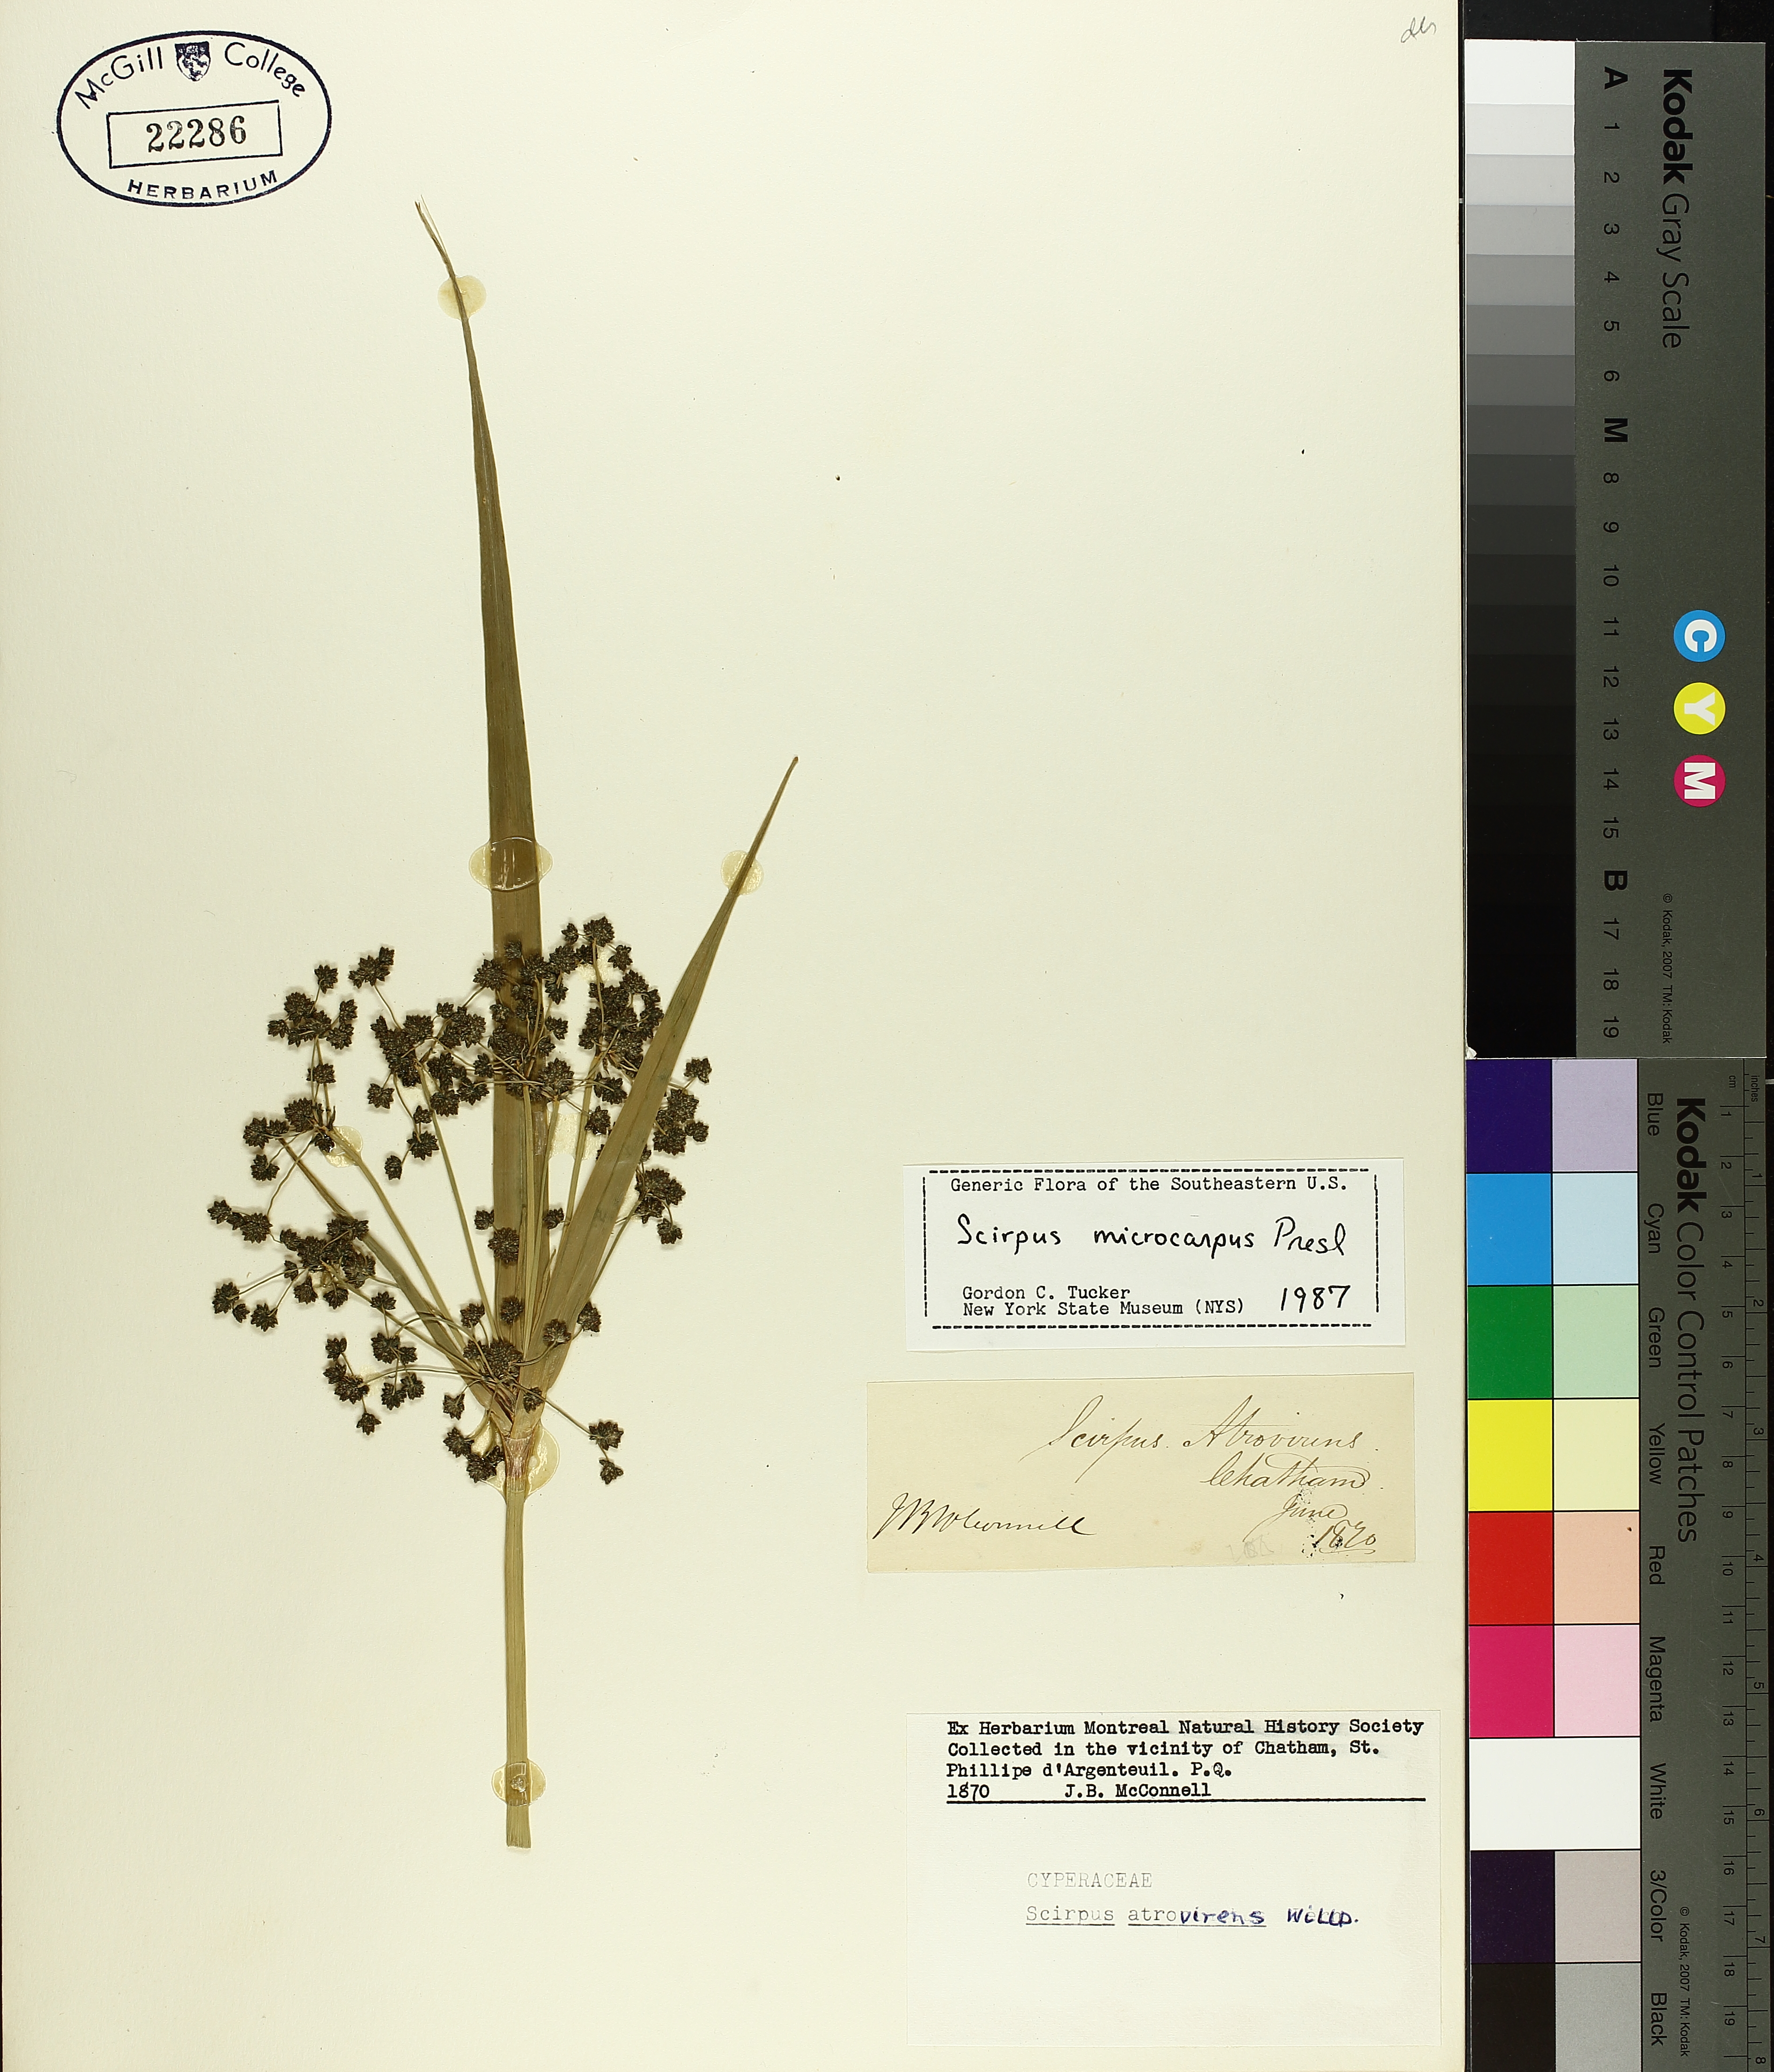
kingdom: Plantae
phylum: Tracheophyta
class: Liliopsida
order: Poales
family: Cyperaceae
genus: Scirpus
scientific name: Scirpus microcarpus
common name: Panicled bulrush
